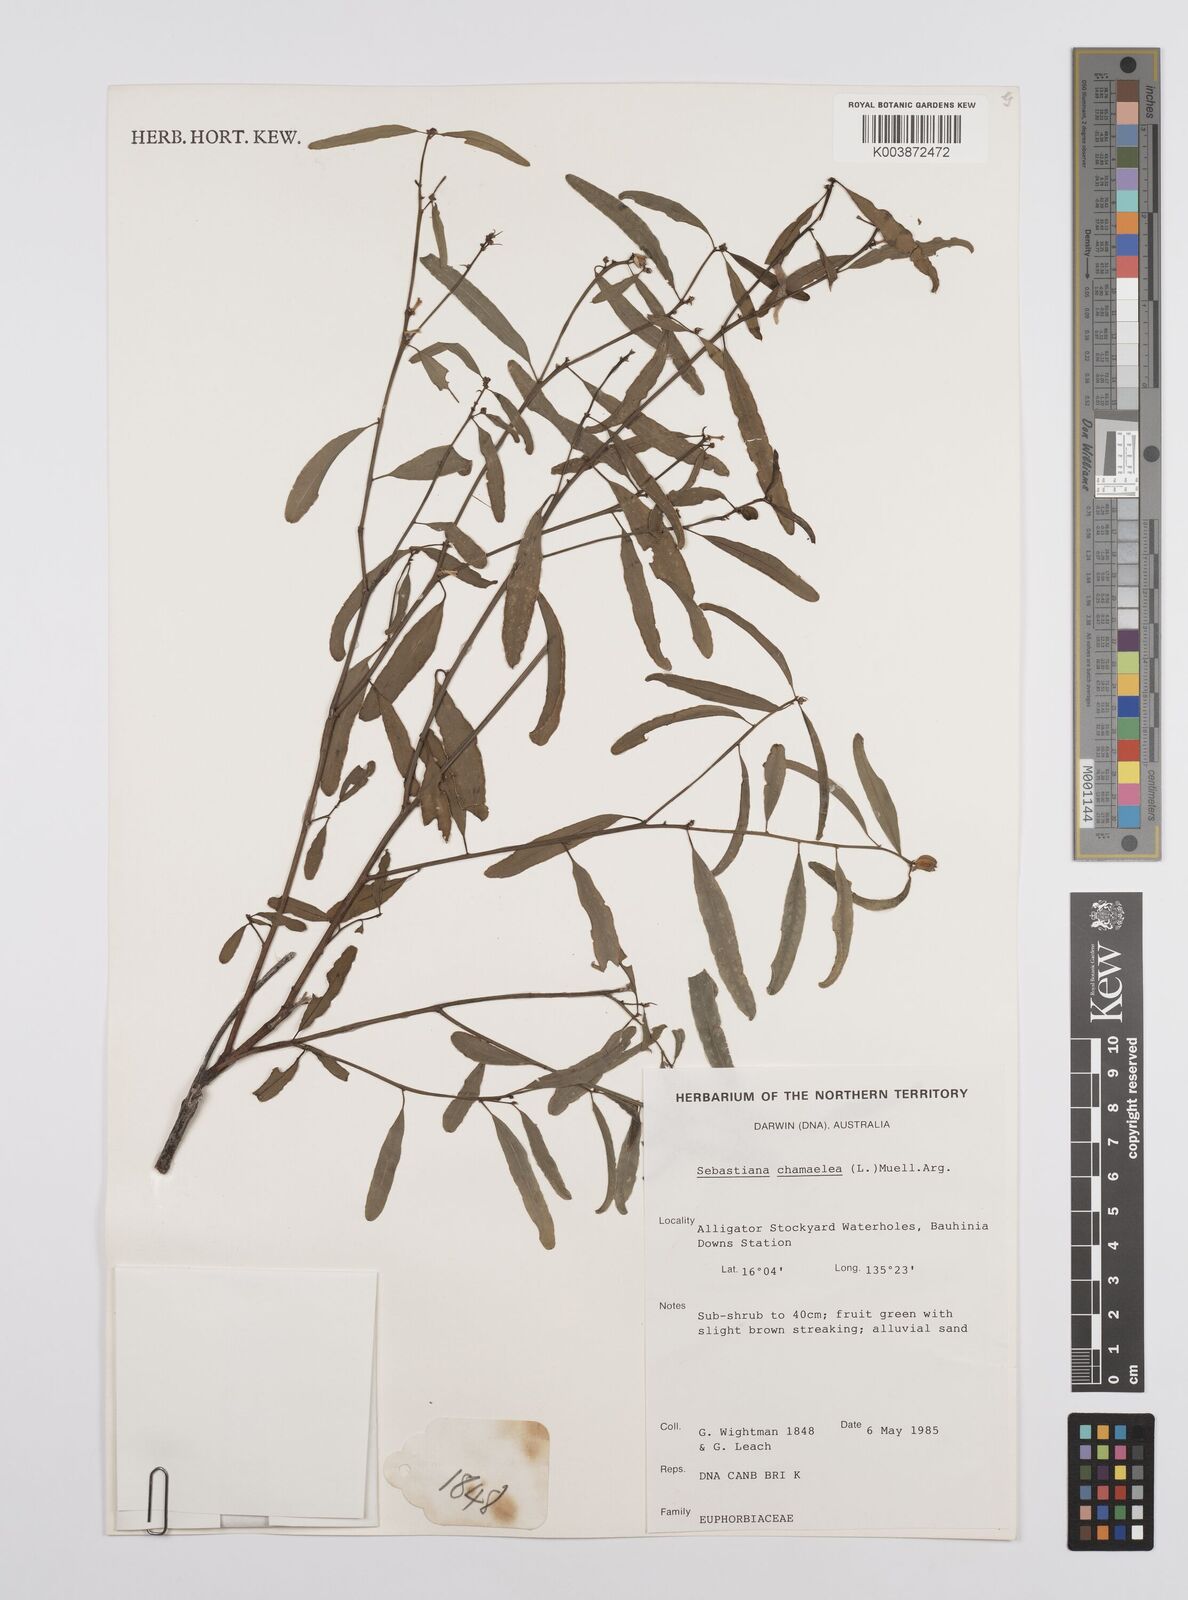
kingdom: Plantae
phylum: Tracheophyta
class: Magnoliopsida
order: Malpighiales
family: Euphorbiaceae
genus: Microstachys
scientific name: Microstachys chamaelea
